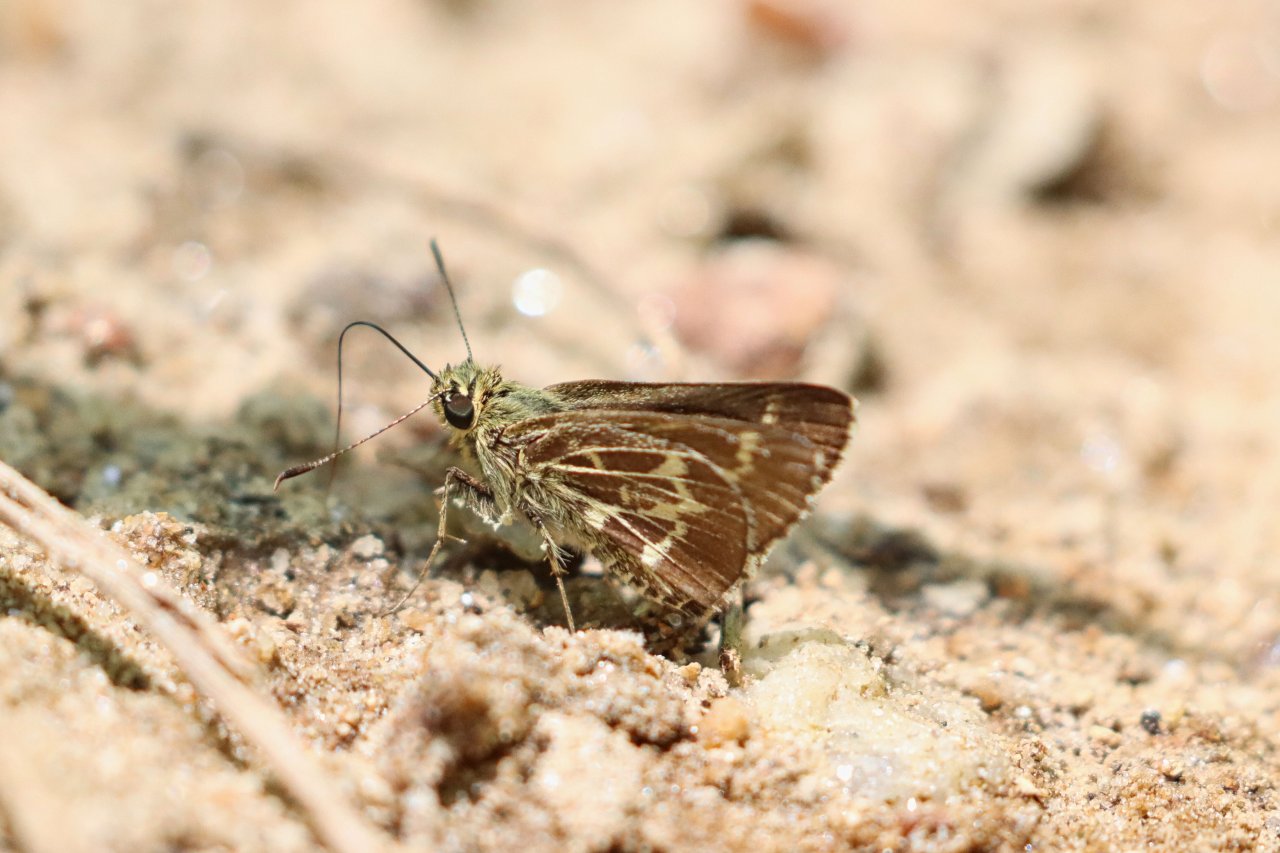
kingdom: Animalia
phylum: Arthropoda
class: Insecta
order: Lepidoptera
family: Hesperiidae
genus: Mastor
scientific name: Mastor aesculapius
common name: Lace-winged Roadside-Skipper
